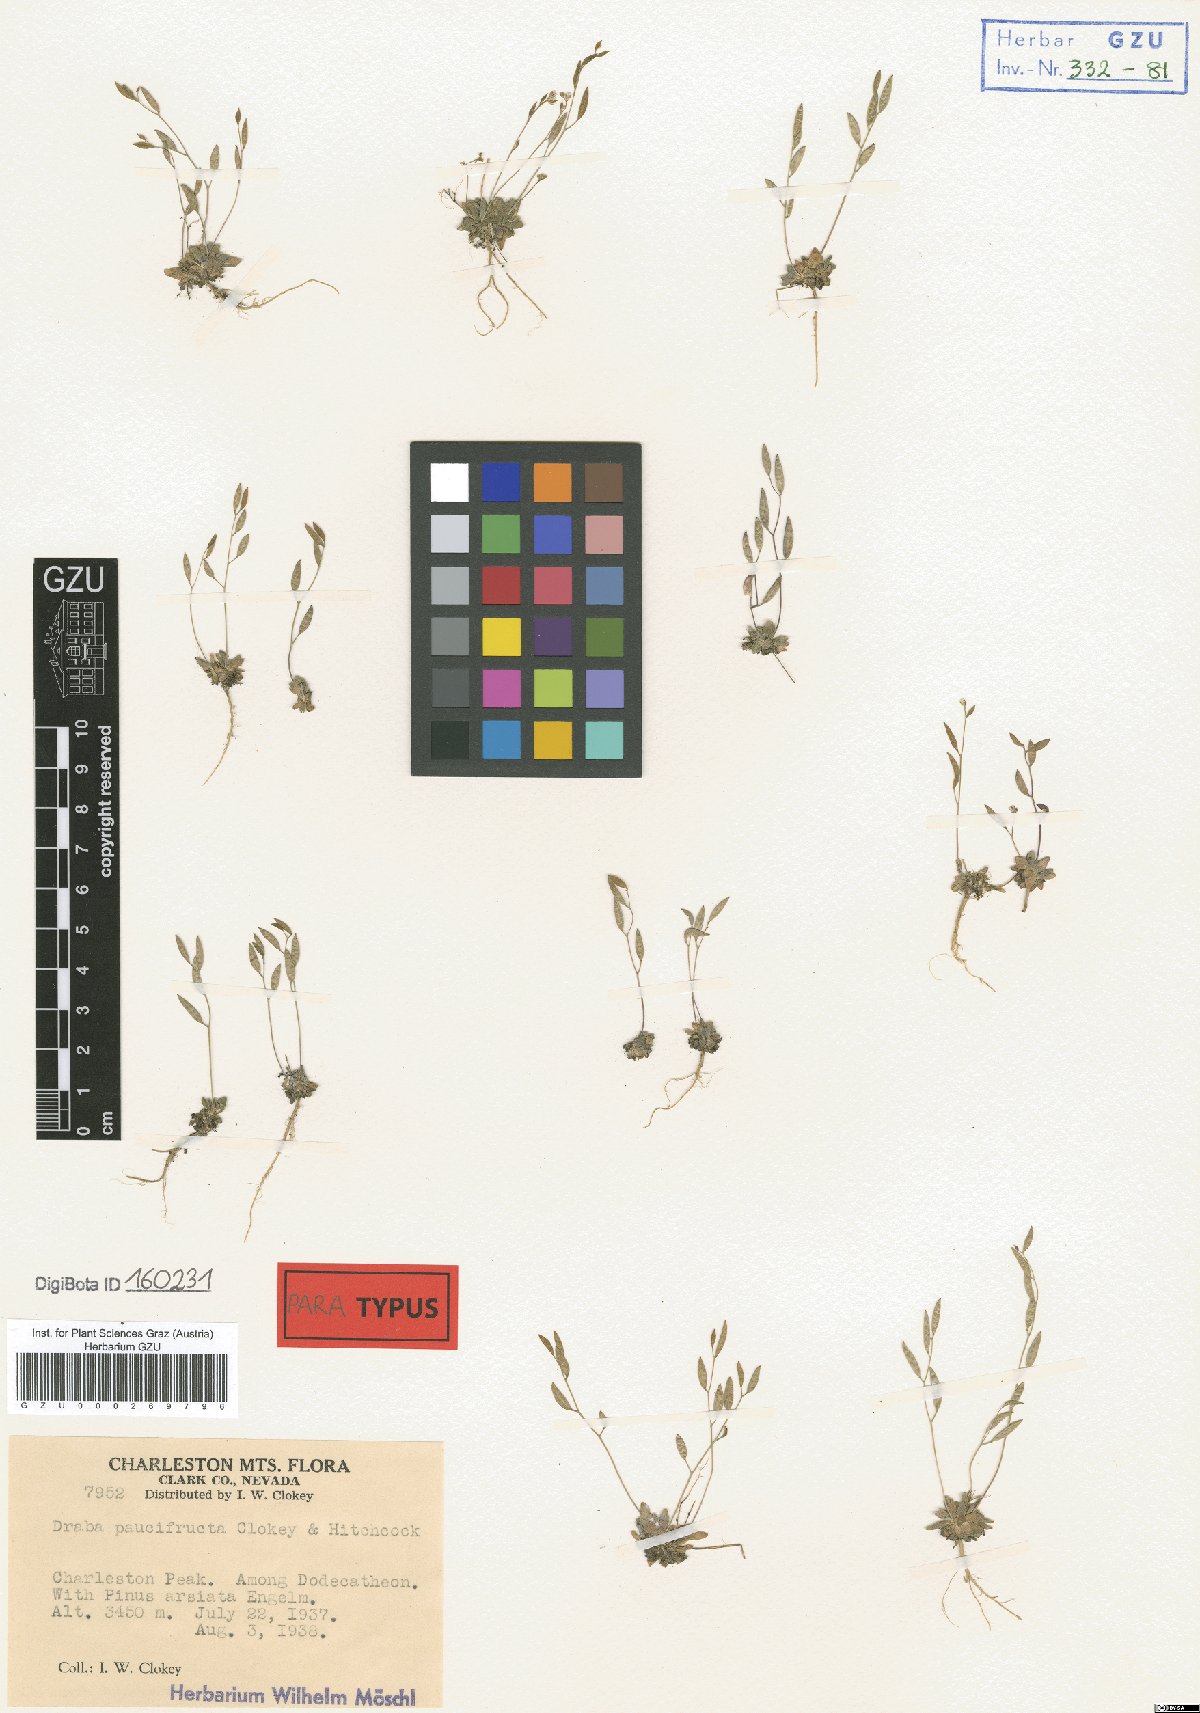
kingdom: Plantae
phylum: Tracheophyta
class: Magnoliopsida
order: Brassicales
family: Brassicaceae
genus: Draba
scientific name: Draba paucifructa
